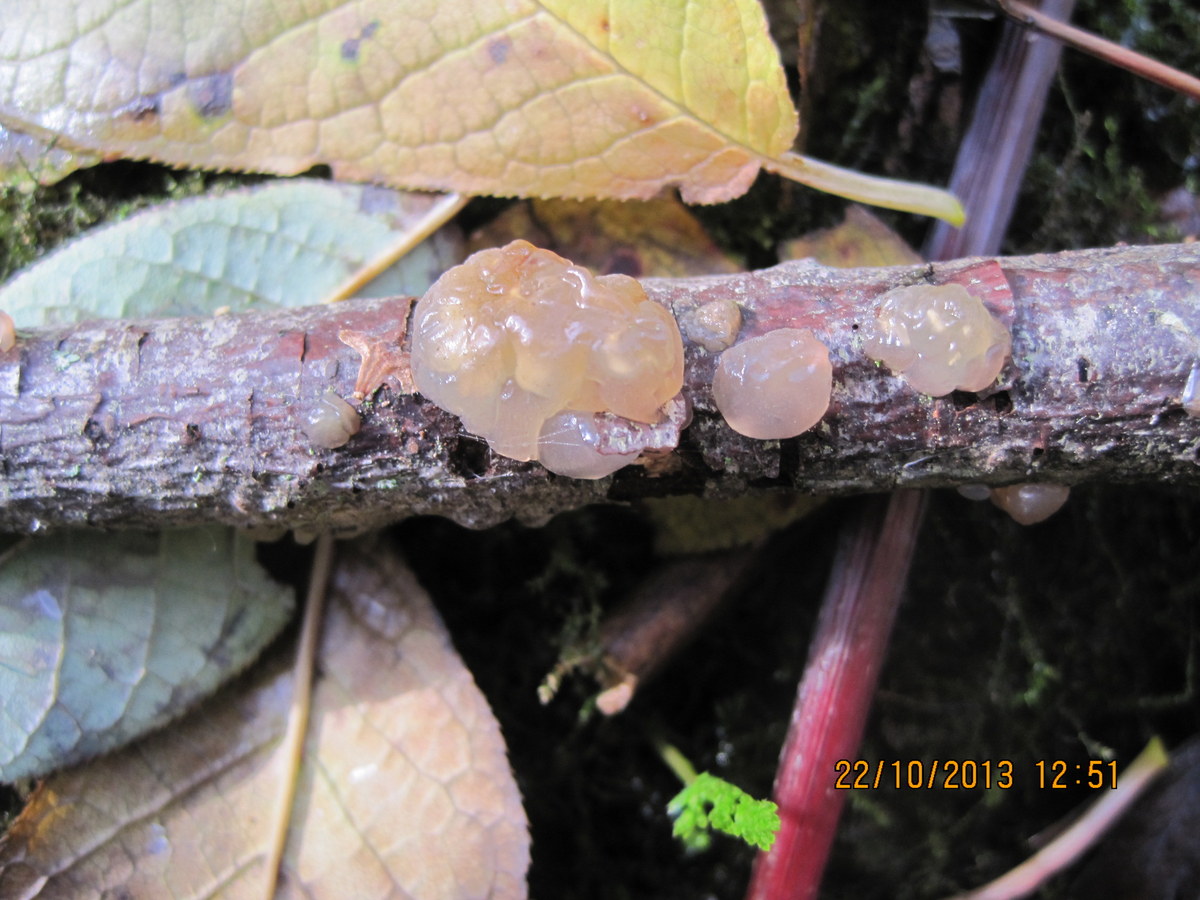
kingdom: Fungi
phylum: Basidiomycota
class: Agaricomycetes
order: Auriculariales
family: Hyaloriaceae
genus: Myxarium
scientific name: Myxarium hyalinum
